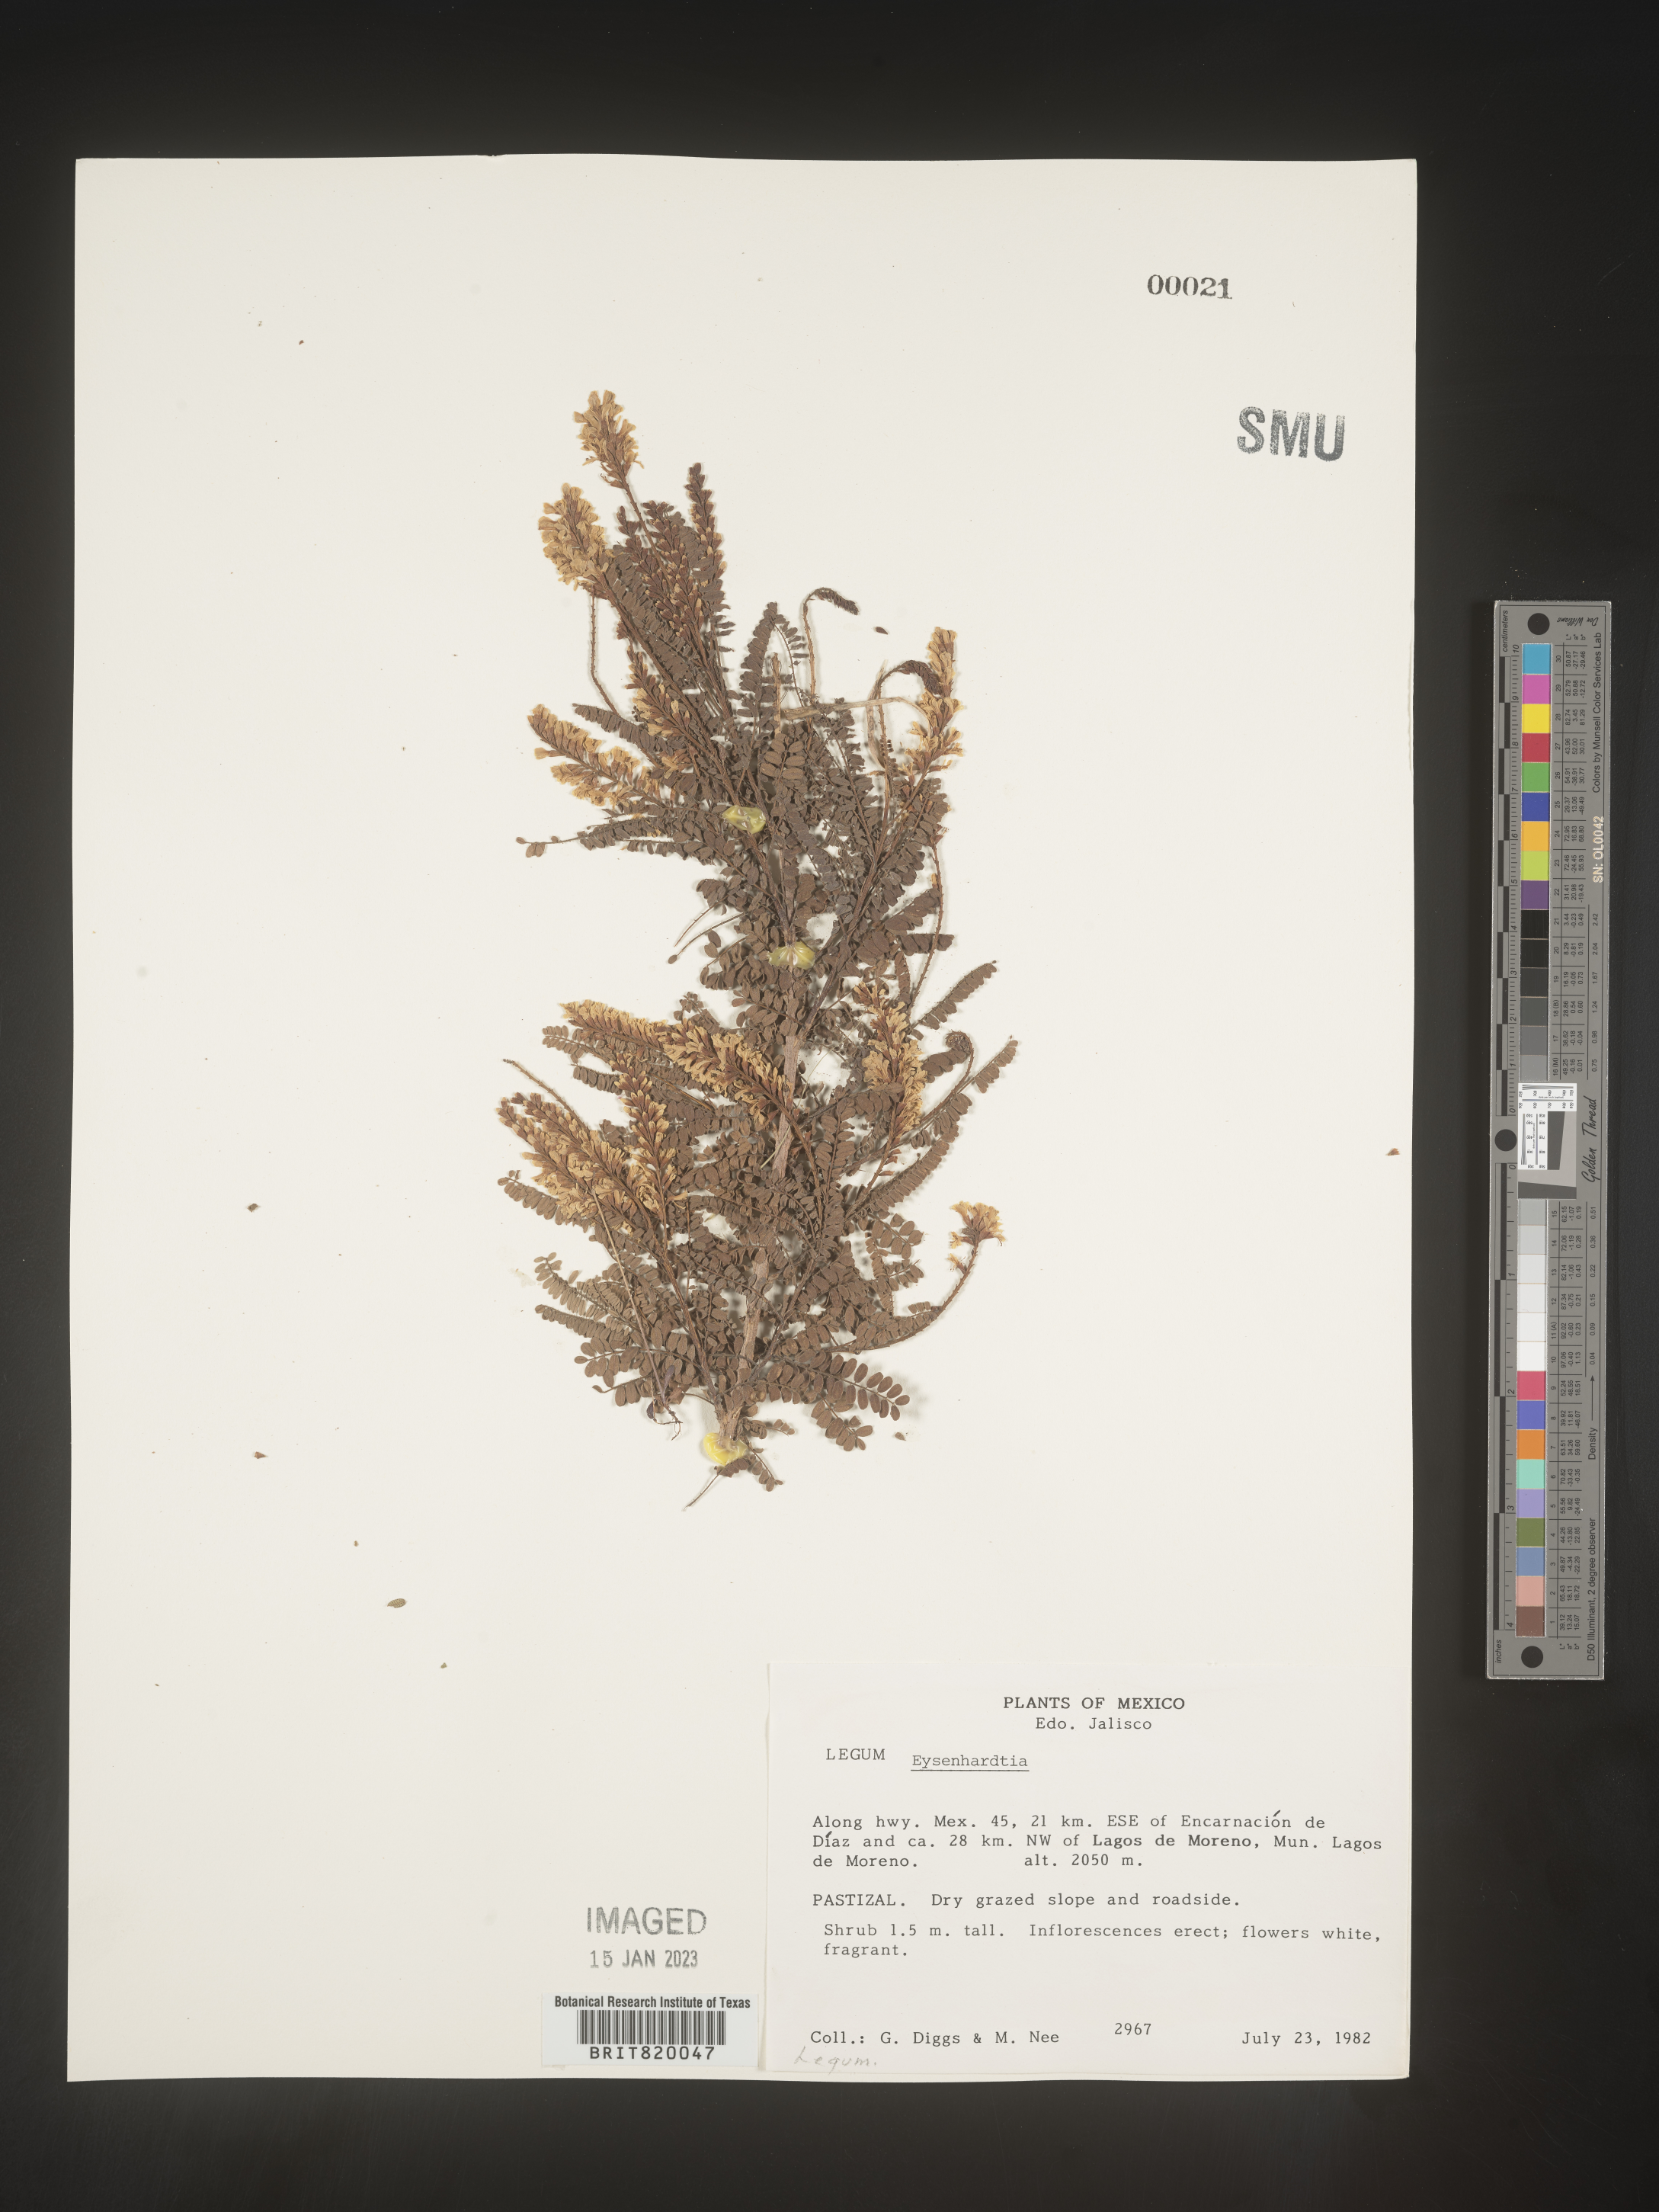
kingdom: Plantae
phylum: Tracheophyta
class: Magnoliopsida
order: Fabales
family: Fabaceae
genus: Eysenhardtia
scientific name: Eysenhardtia
